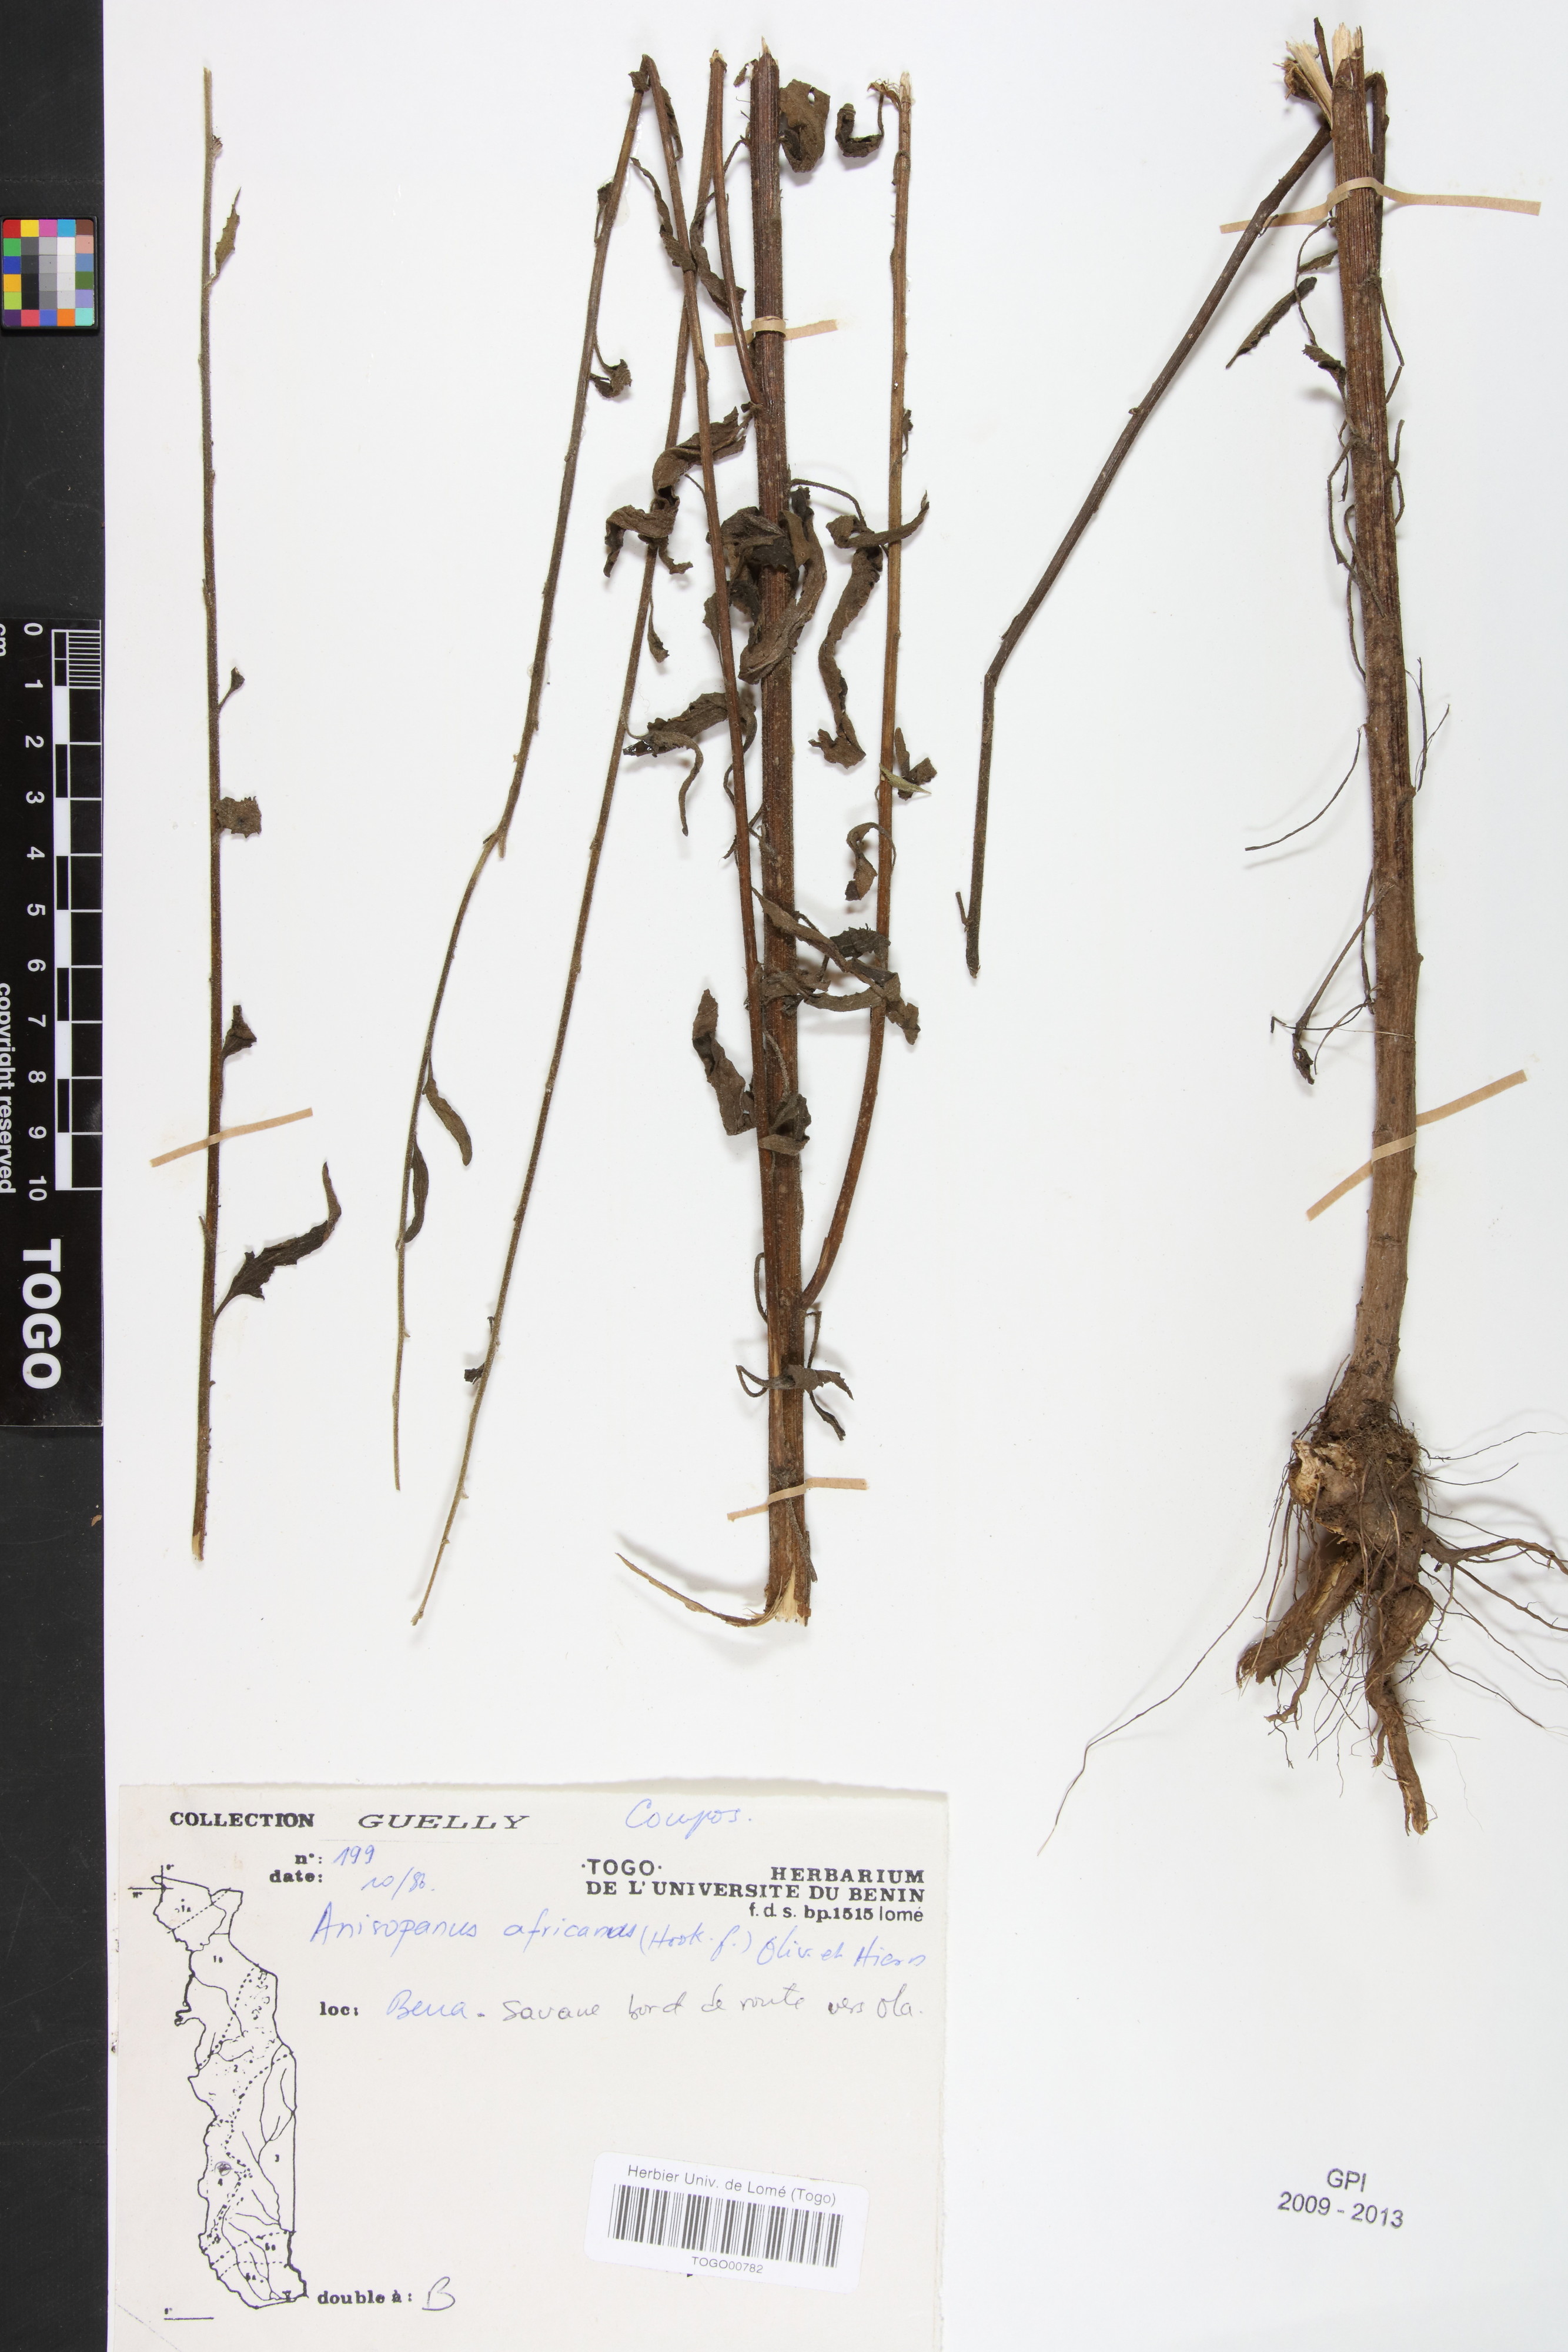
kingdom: Plantae
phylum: Tracheophyta
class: Magnoliopsida
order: Asterales
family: Asteraceae
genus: Anisopappus
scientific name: Anisopappus africanus
